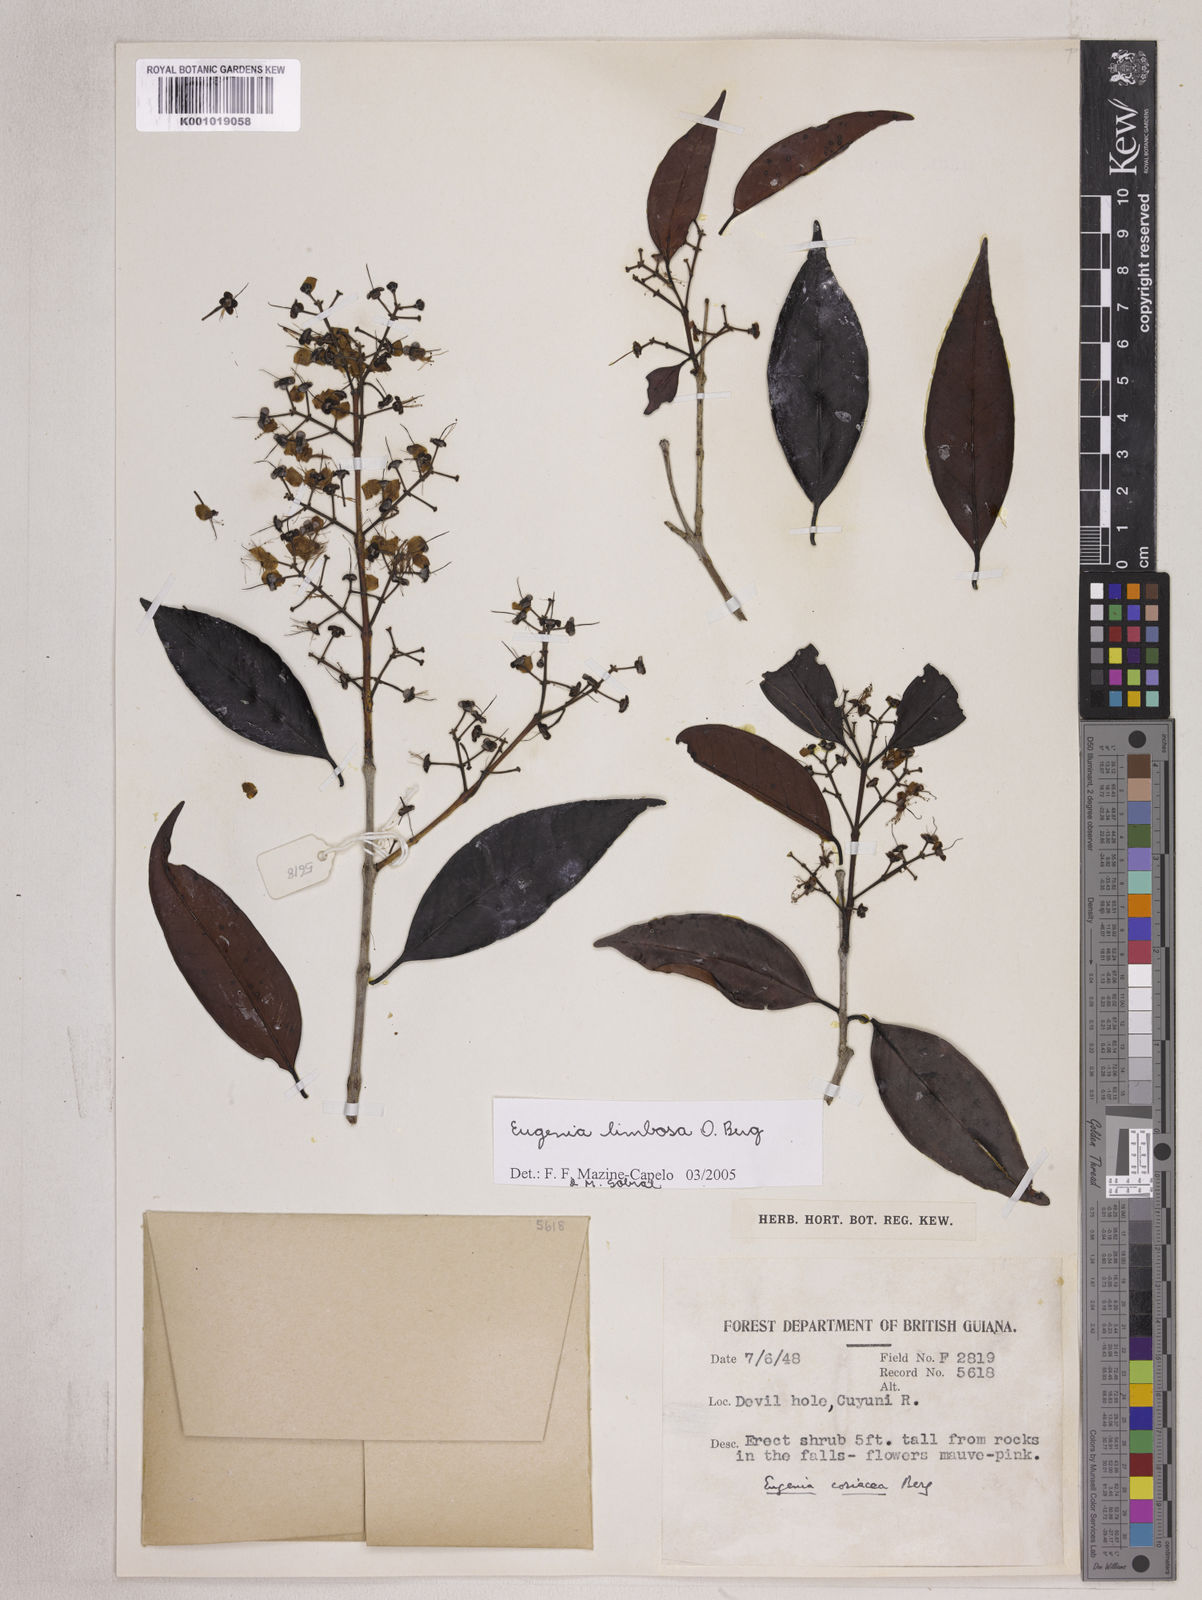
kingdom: Plantae
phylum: Tracheophyta
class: Magnoliopsida
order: Myrtales
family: Myrtaceae
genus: Eugenia
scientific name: Eugenia limbosa
